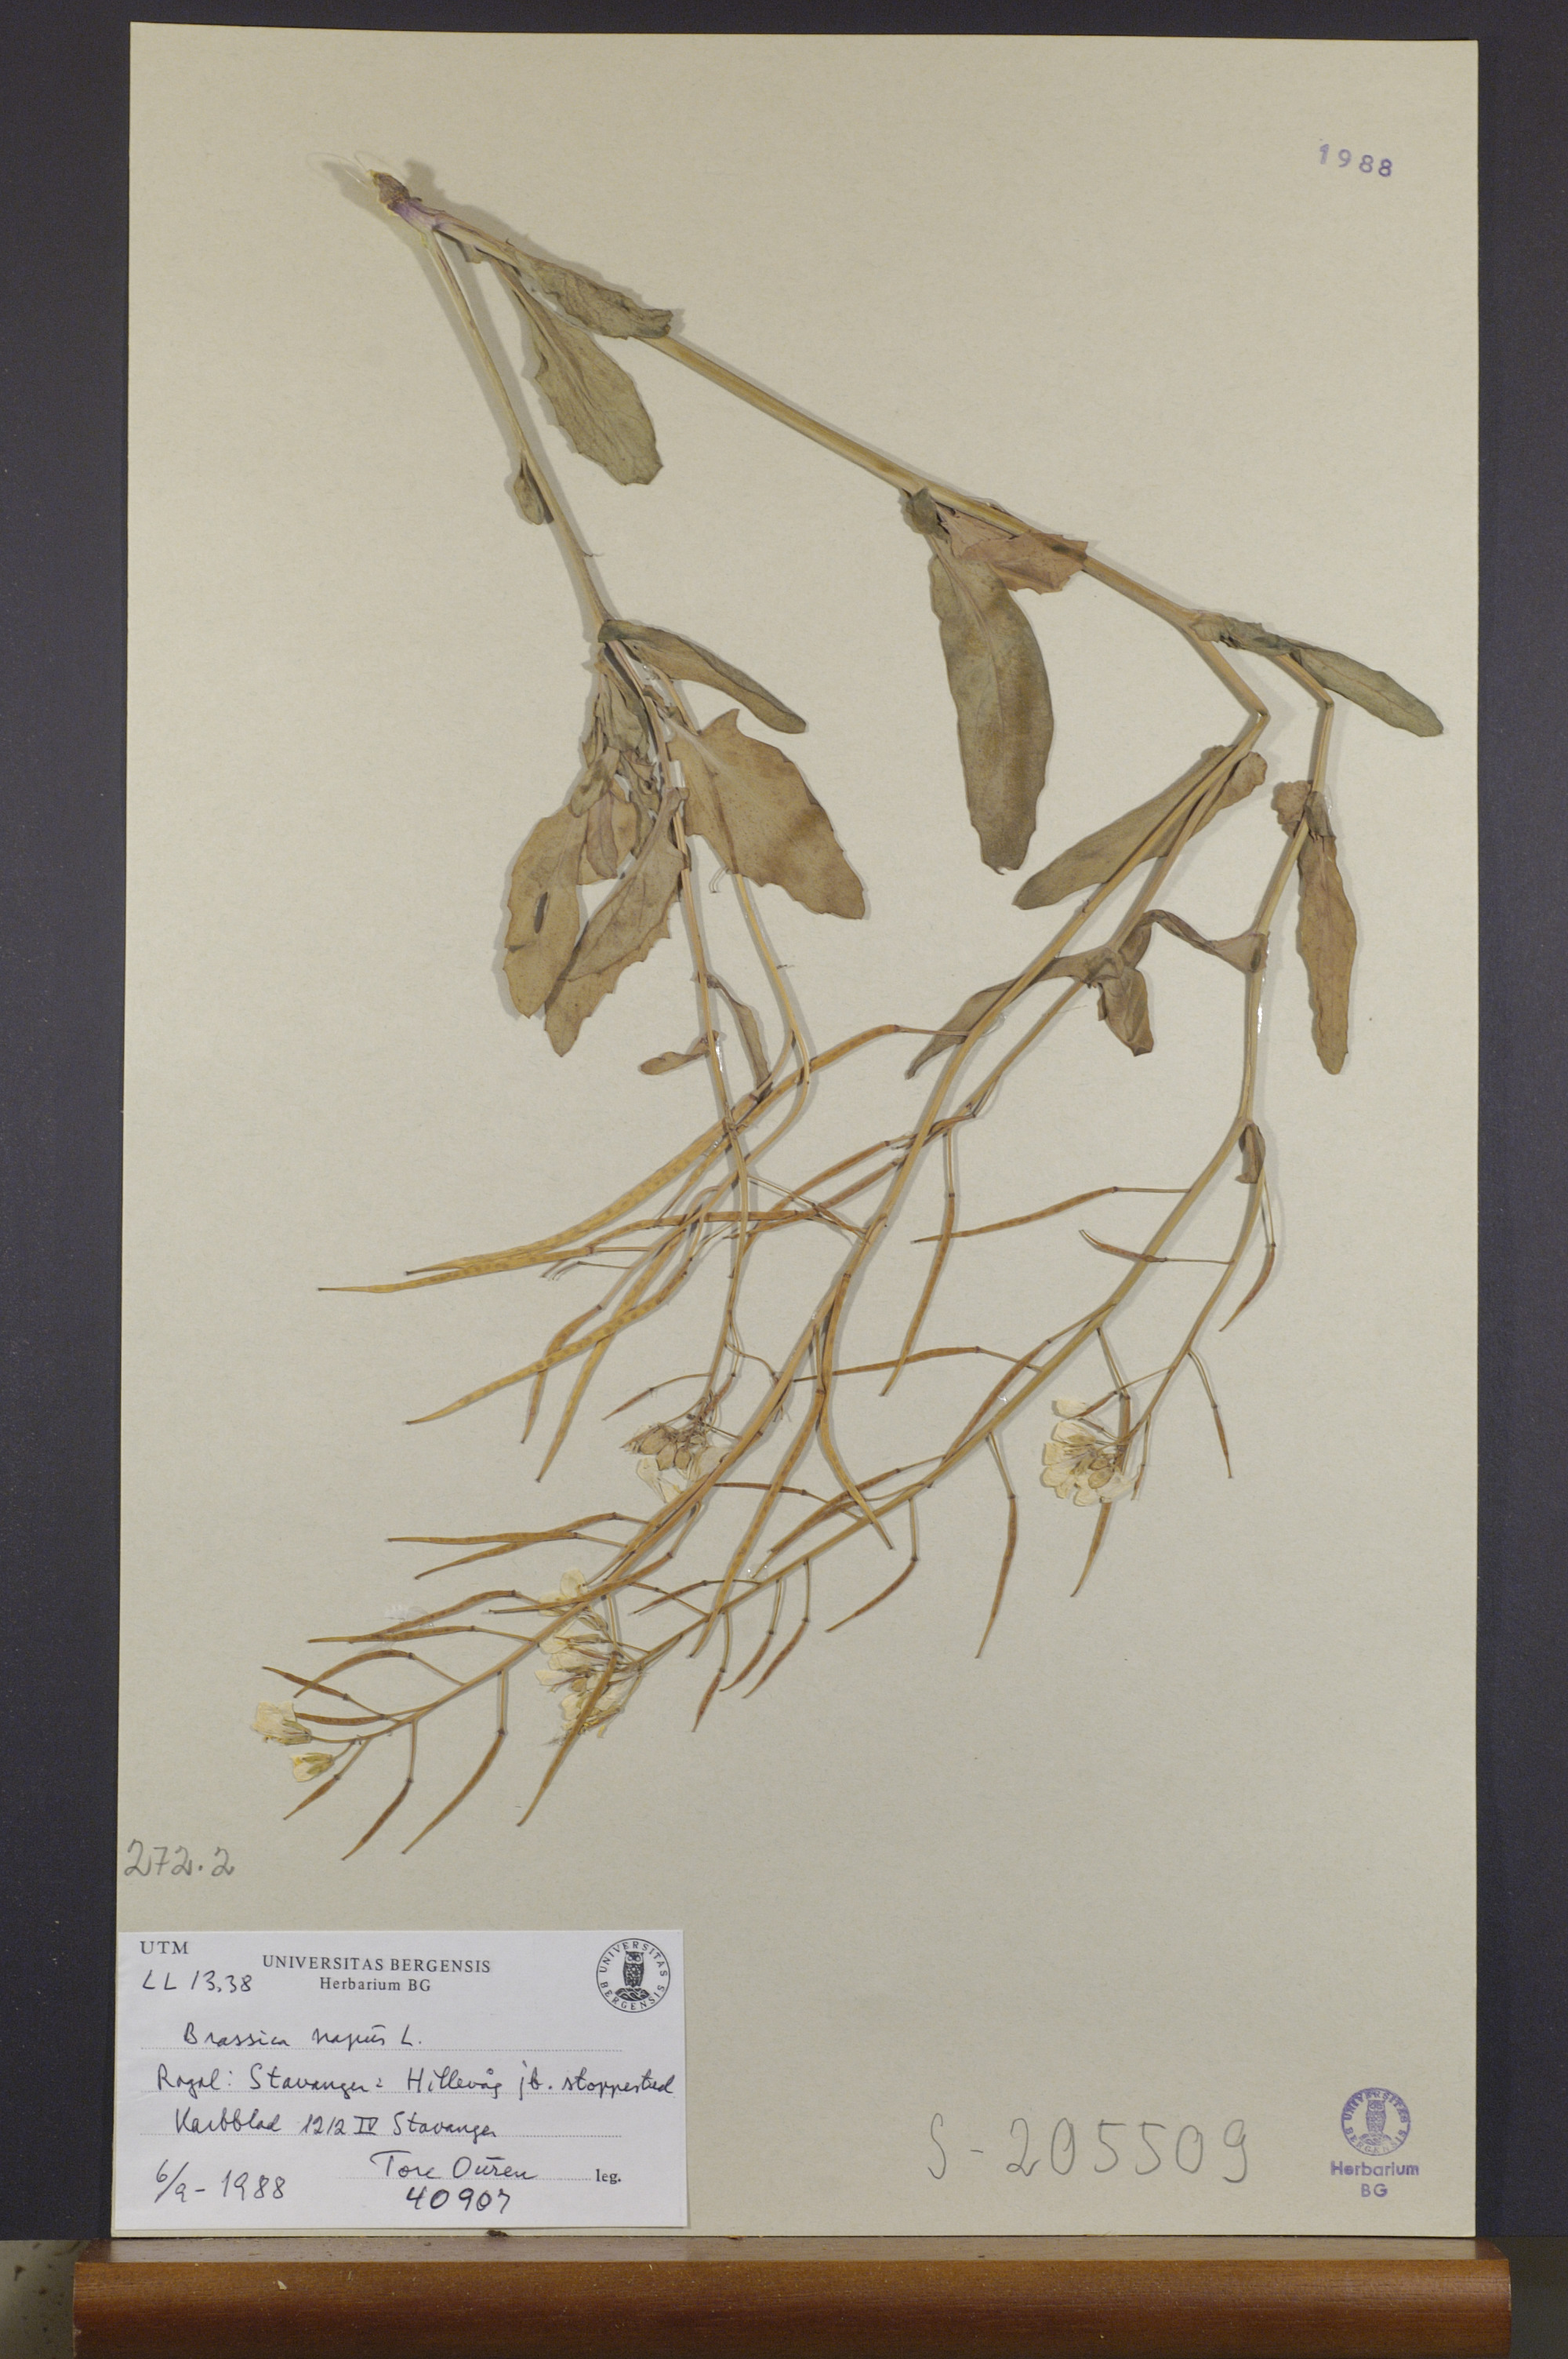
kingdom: Plantae
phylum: Tracheophyta
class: Magnoliopsida
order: Brassicales
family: Brassicaceae
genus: Brassica
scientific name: Brassica napus
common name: Rape
